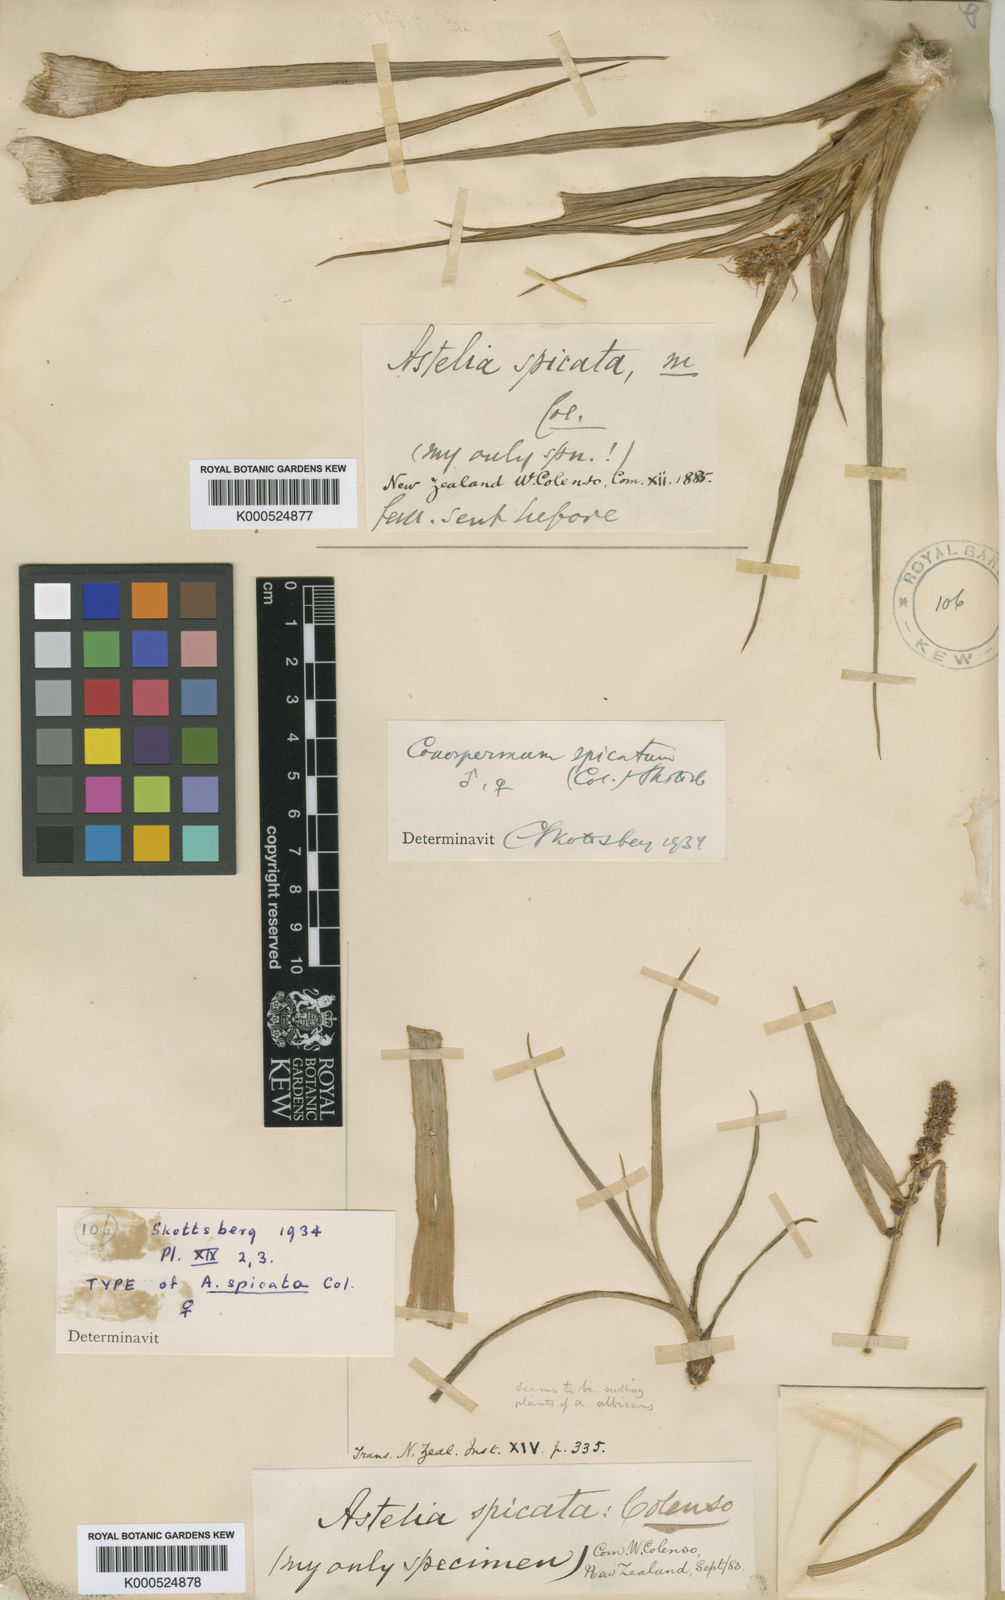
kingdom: Plantae
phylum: Tracheophyta
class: Liliopsida
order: Asparagales
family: Asteliaceae
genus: Astelia
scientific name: Astelia spicata
